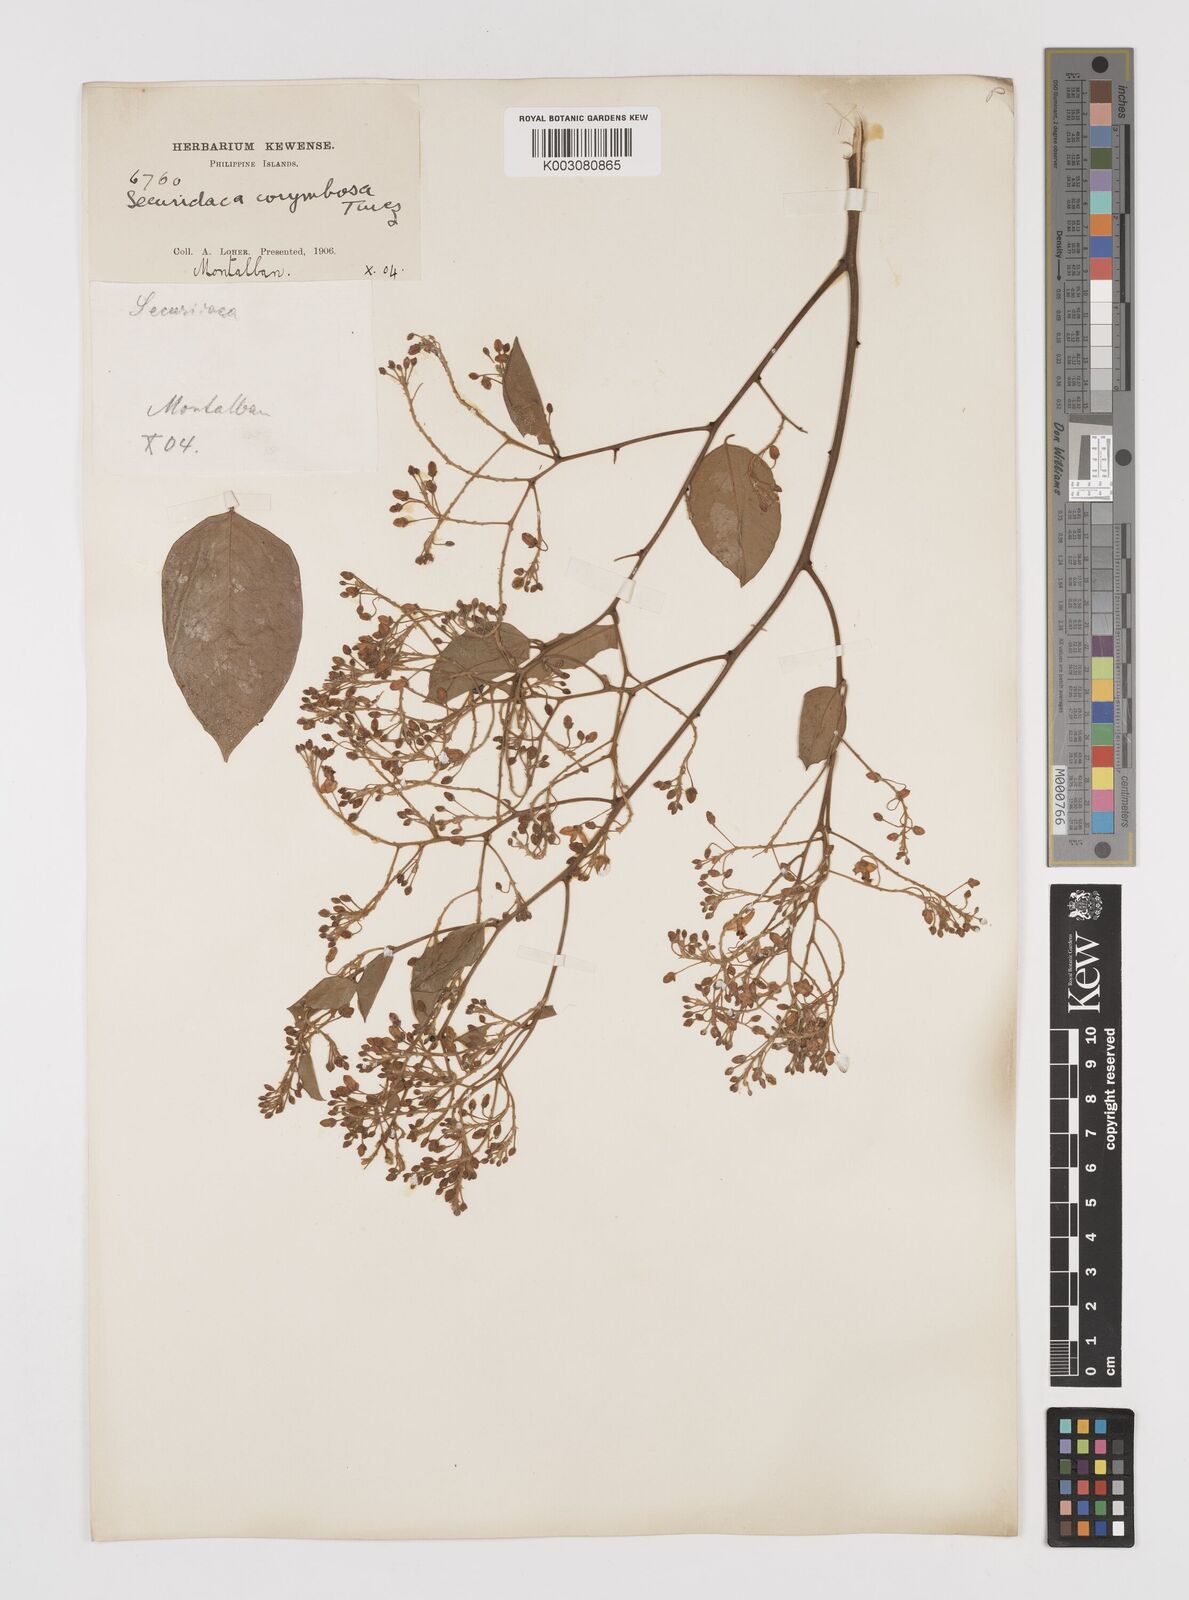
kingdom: Plantae
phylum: Tracheophyta
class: Magnoliopsida
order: Fabales
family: Polygalaceae
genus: Securidaca
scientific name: Securidaca inappendiculata
